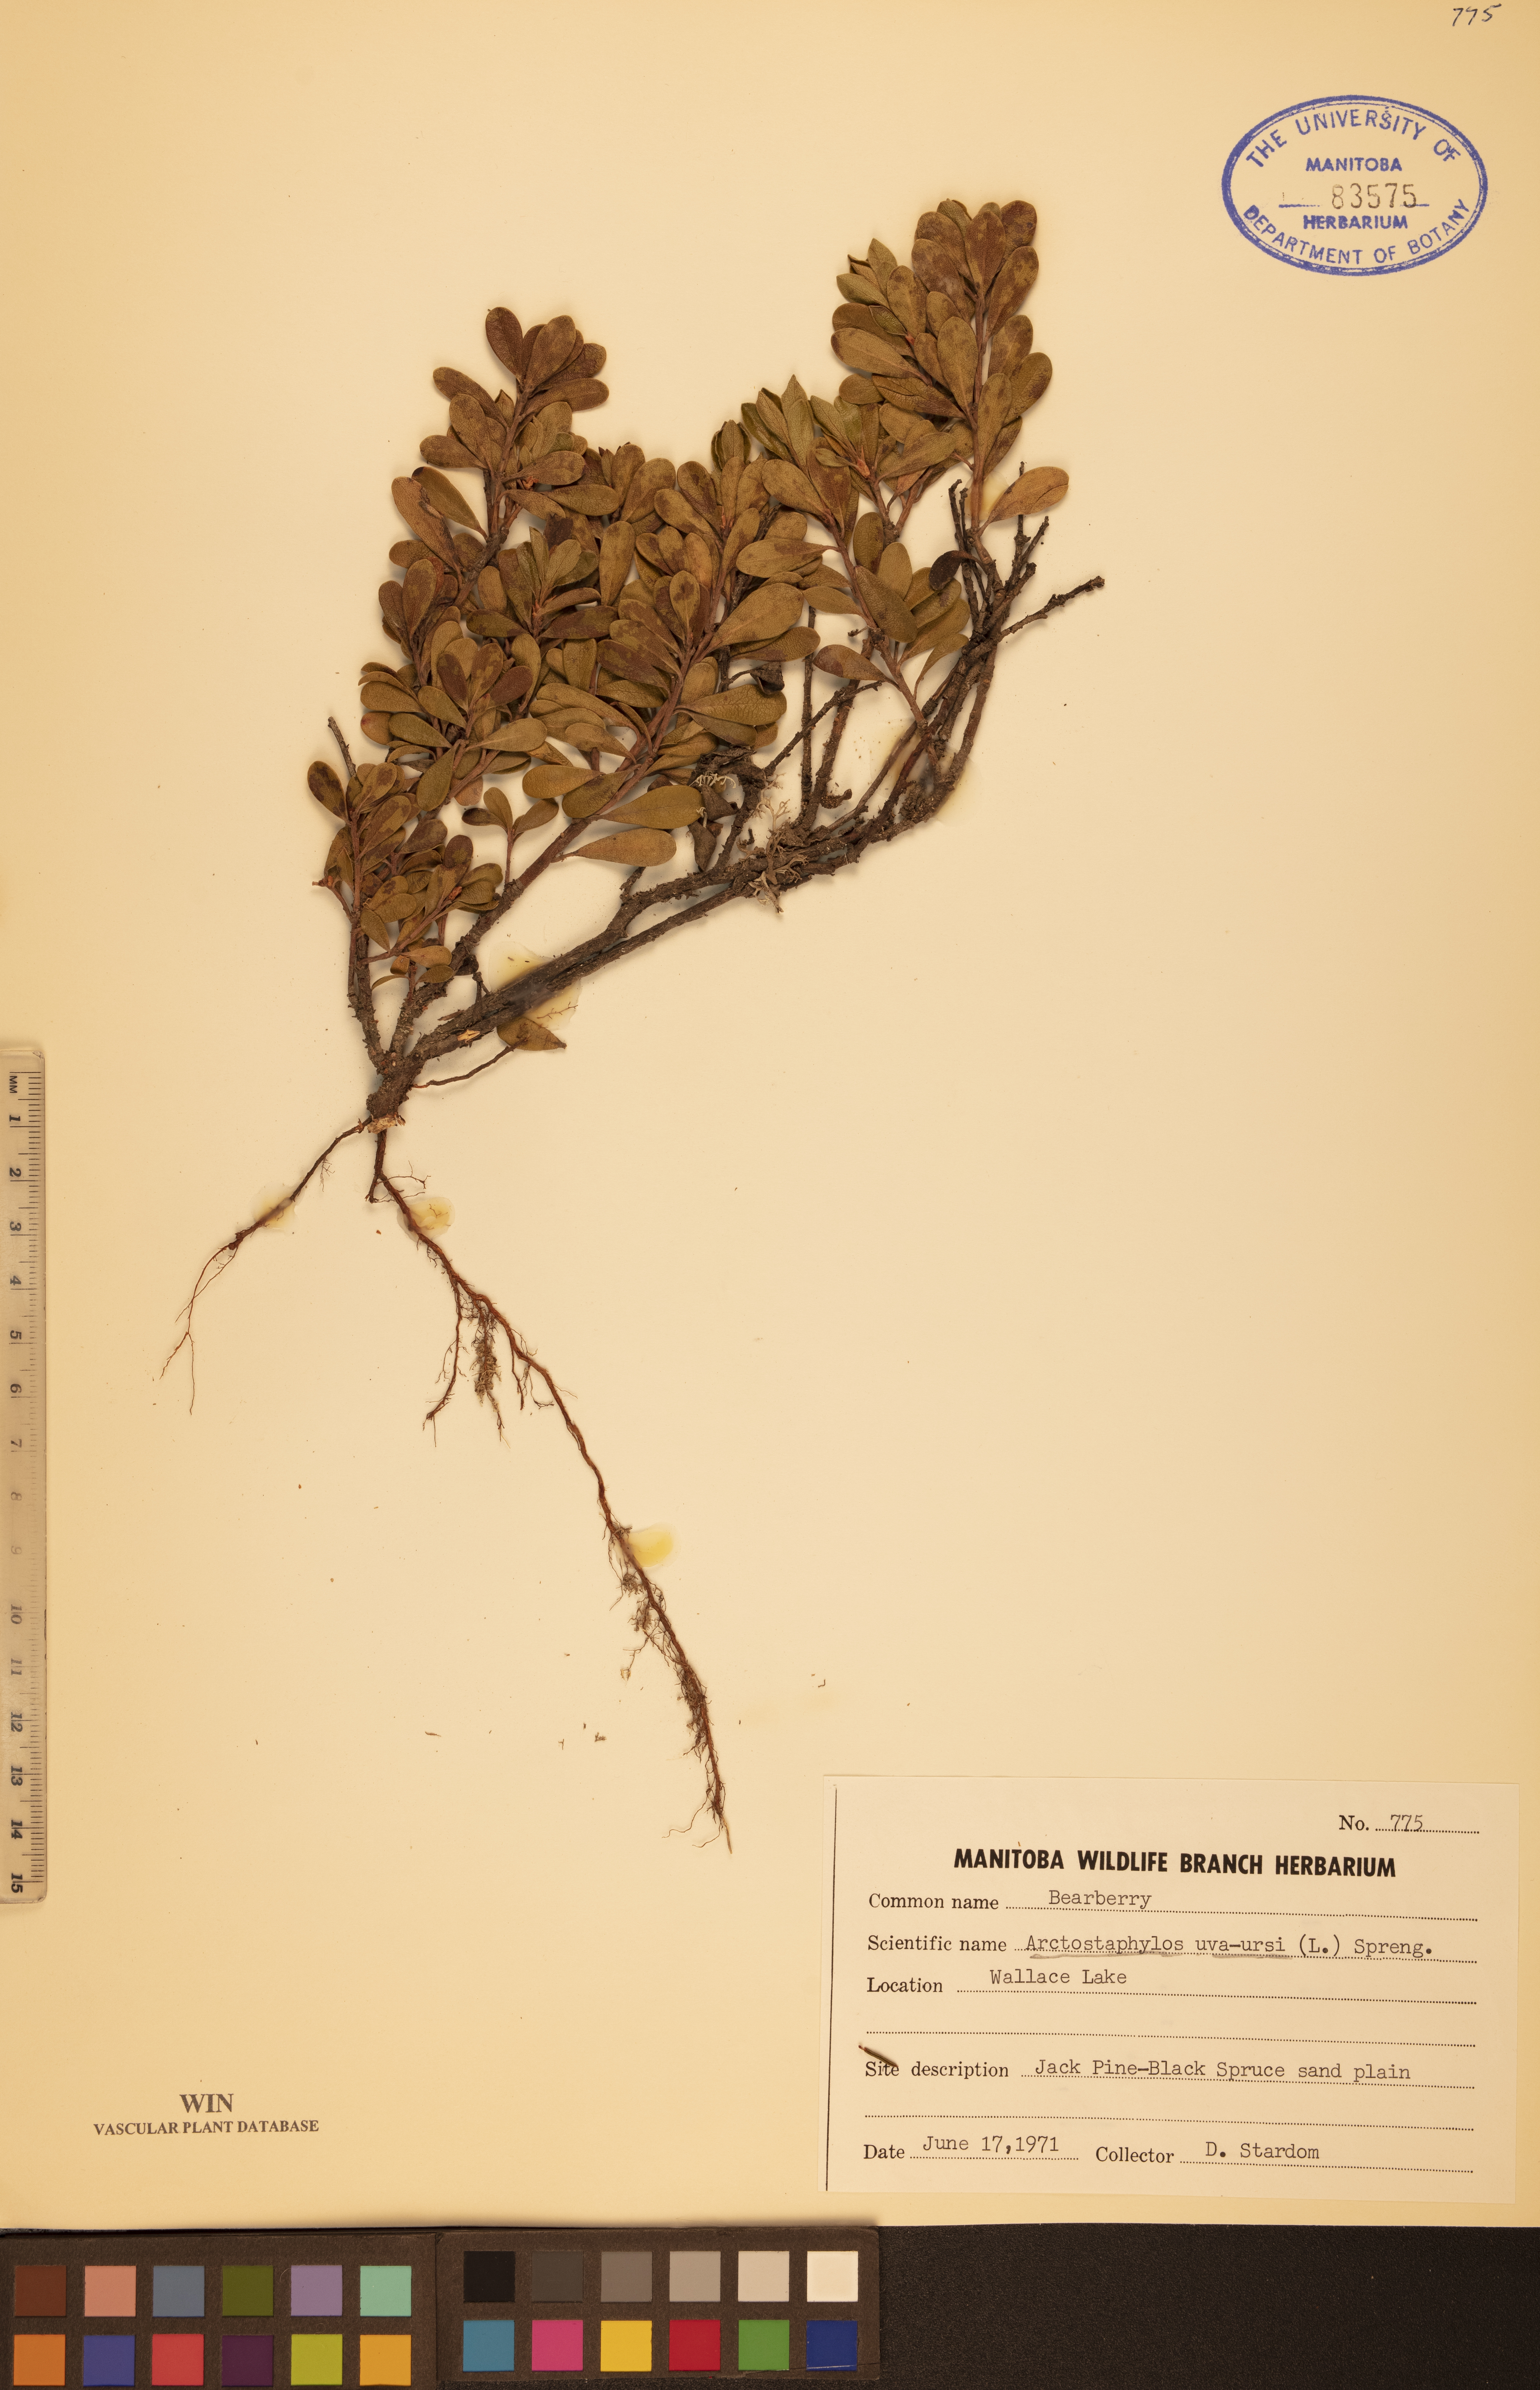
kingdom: Plantae
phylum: Tracheophyta
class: Magnoliopsida
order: Ericales
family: Ericaceae
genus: Arctostaphylos
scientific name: Arctostaphylos uva-ursi
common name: Bearberry
